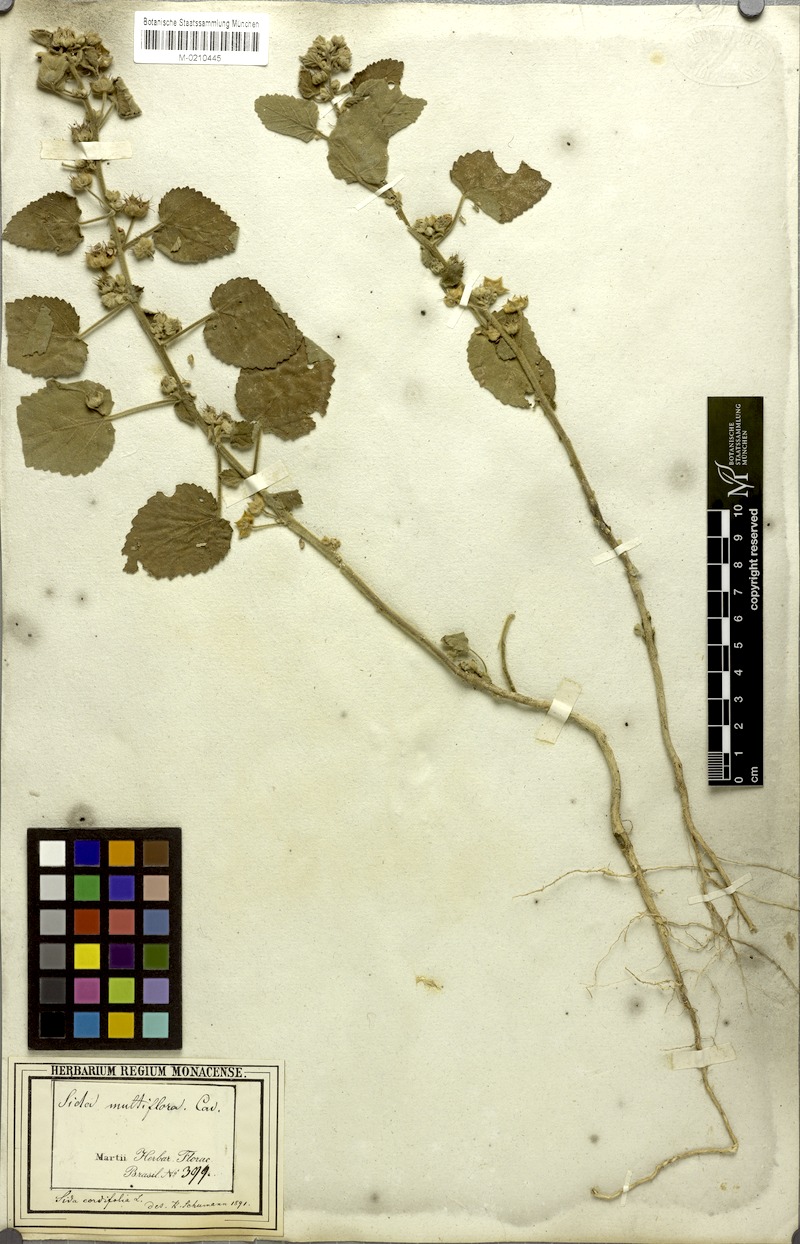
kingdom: Plantae
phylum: Tracheophyta
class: Magnoliopsida
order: Malvales
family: Malvaceae
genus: Sida
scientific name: Sida cordifolia
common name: Ilima
